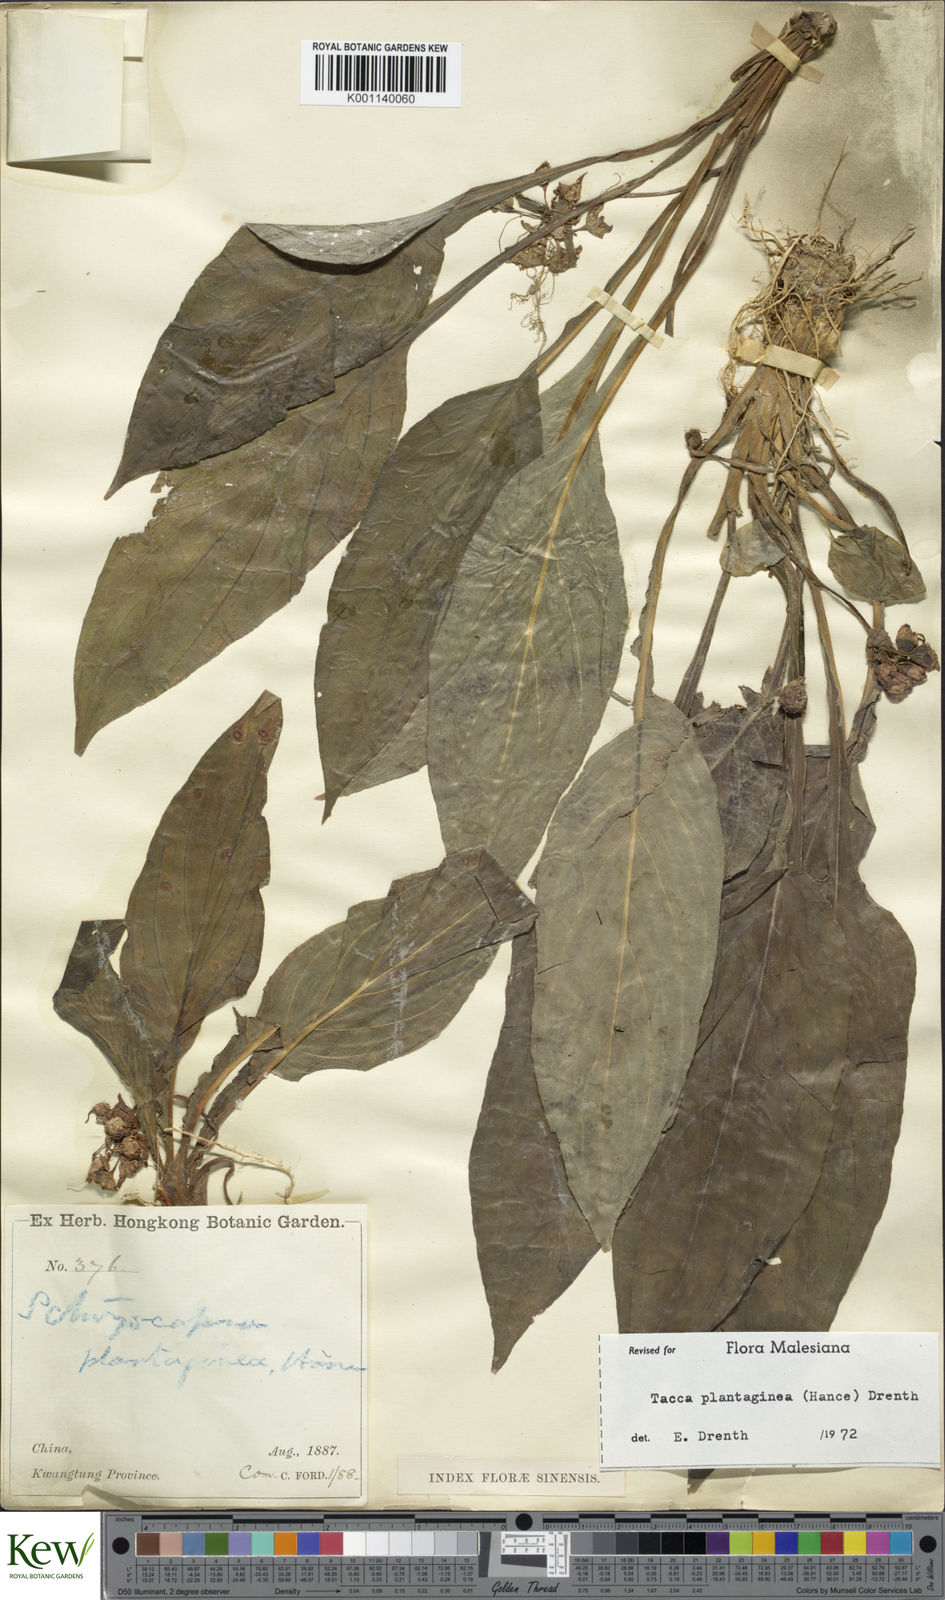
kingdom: Plantae
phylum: Tracheophyta
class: Liliopsida
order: Dioscoreales
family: Dioscoreaceae
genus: Tacca
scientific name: Tacca plantaginea
